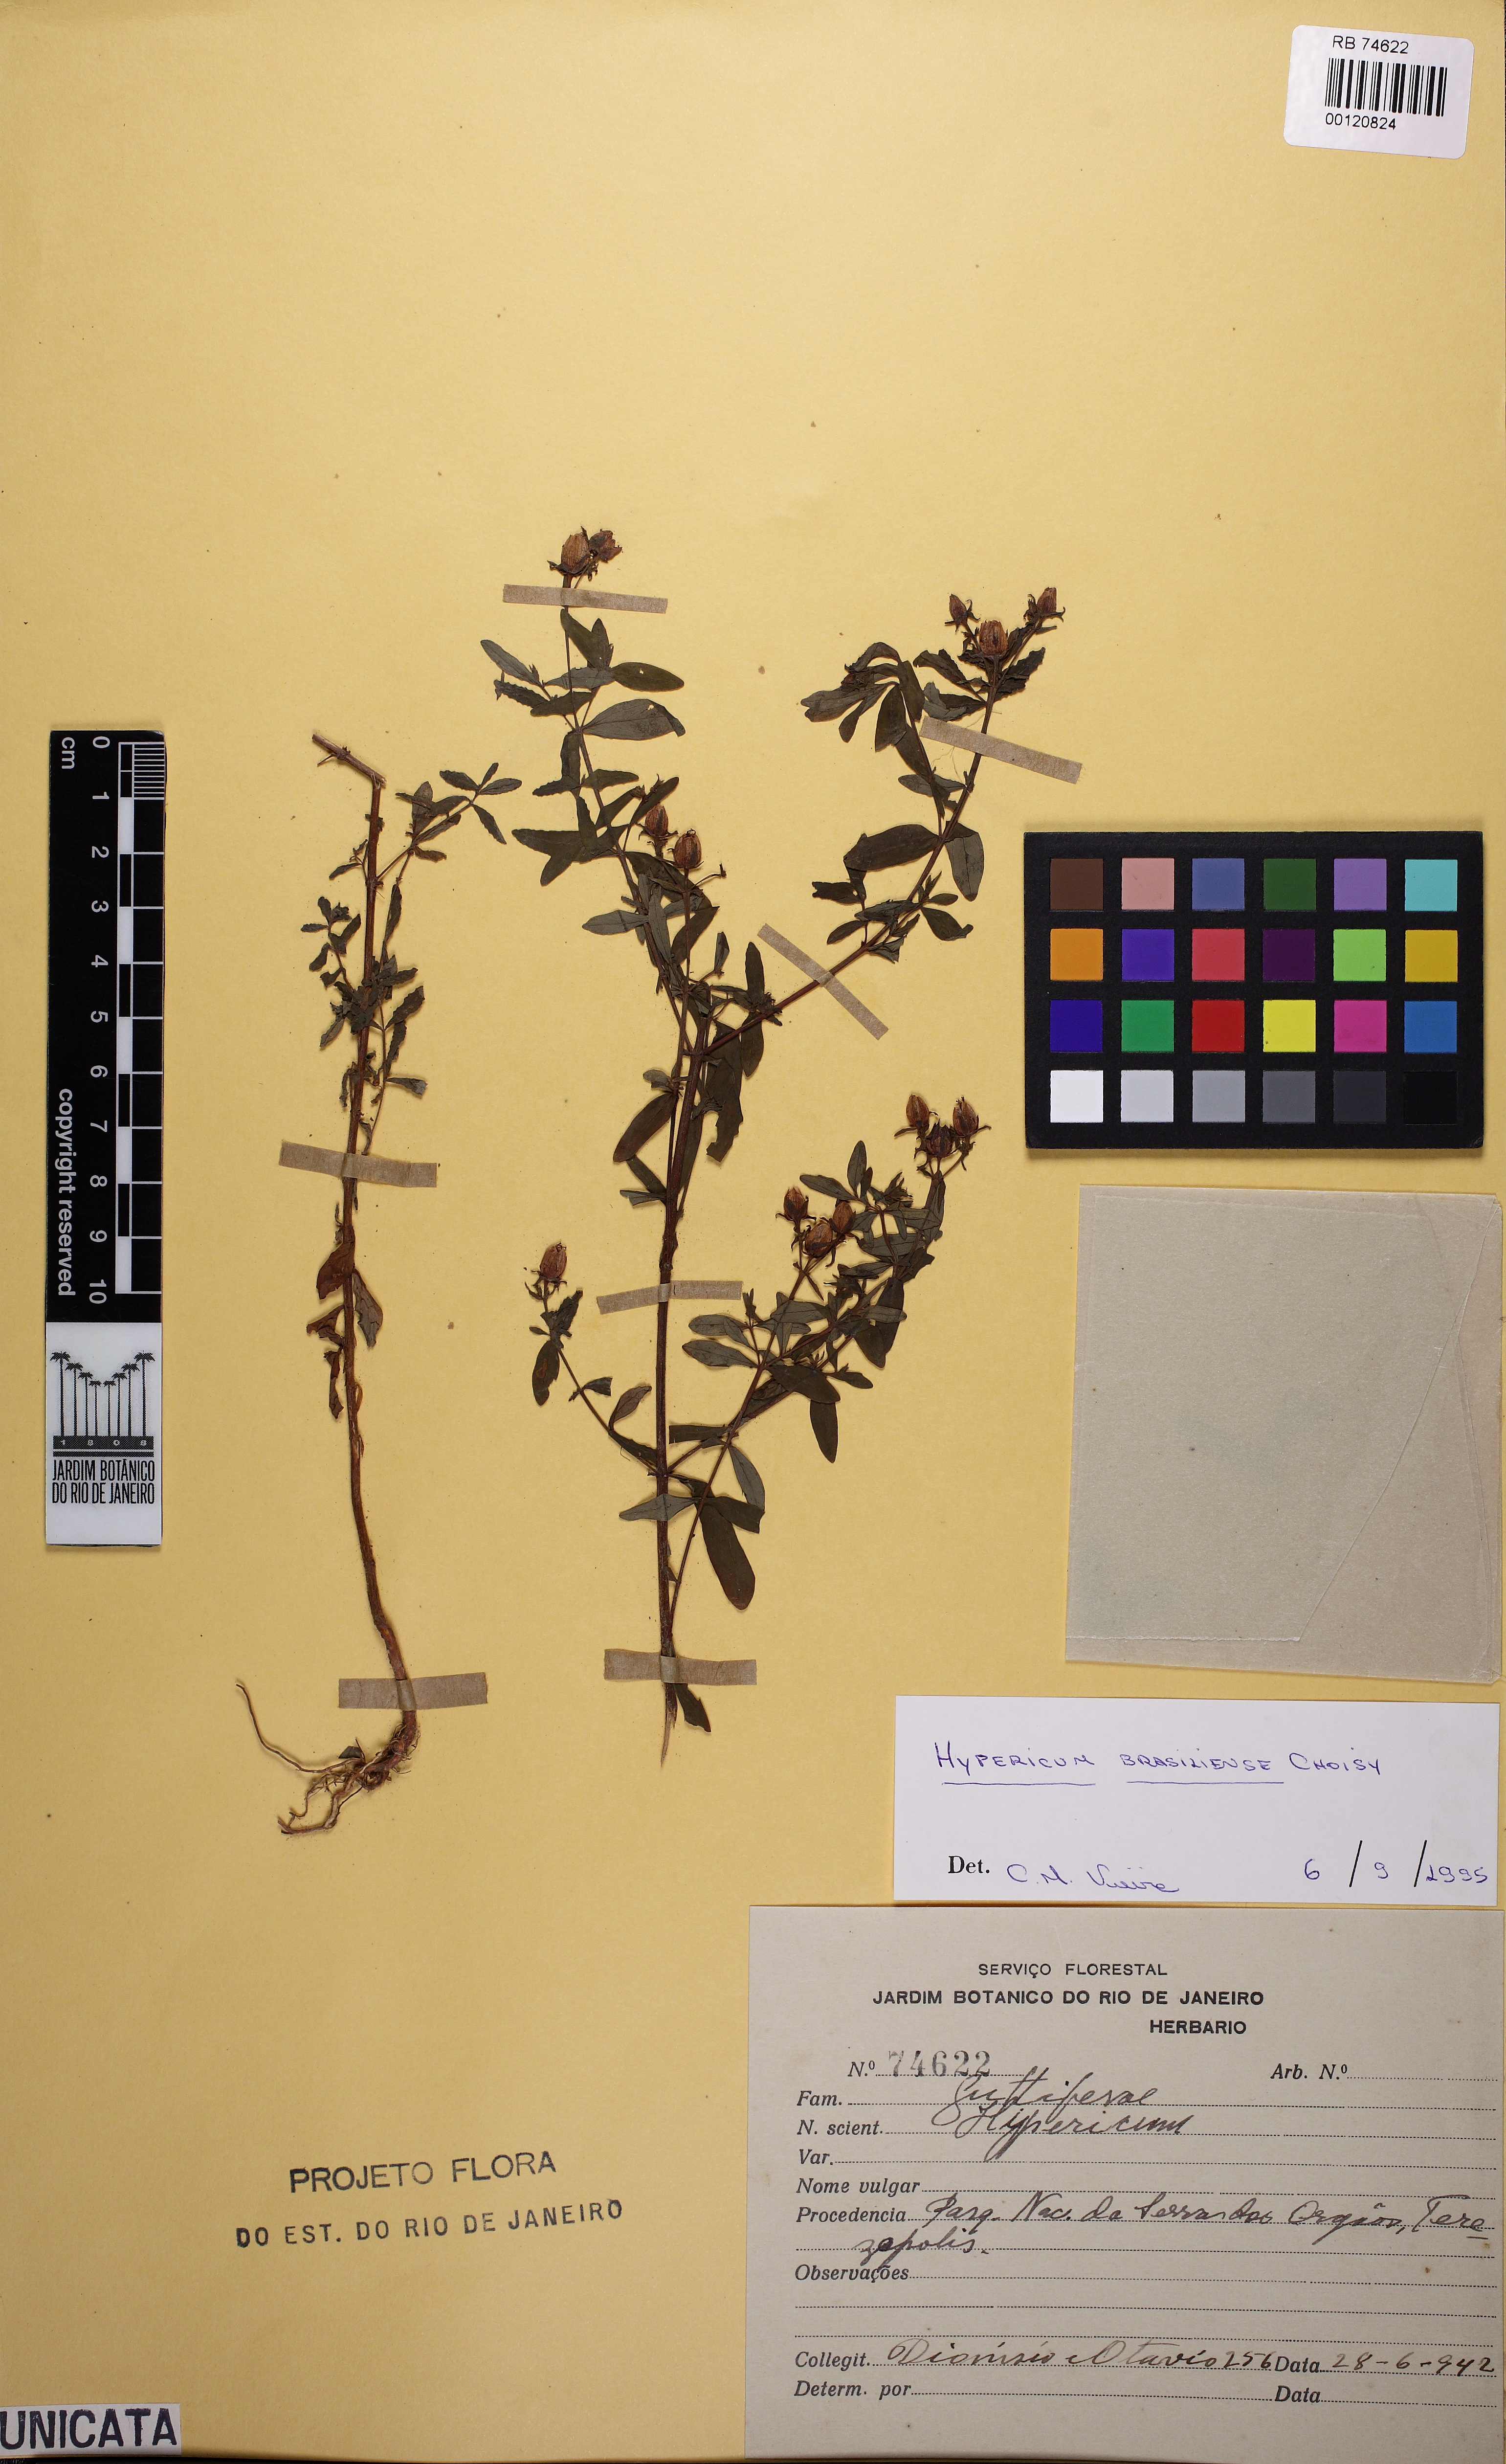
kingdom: Plantae
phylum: Tracheophyta
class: Magnoliopsida
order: Malpighiales
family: Hypericaceae
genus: Hypericum
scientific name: Hypericum brasiliense
